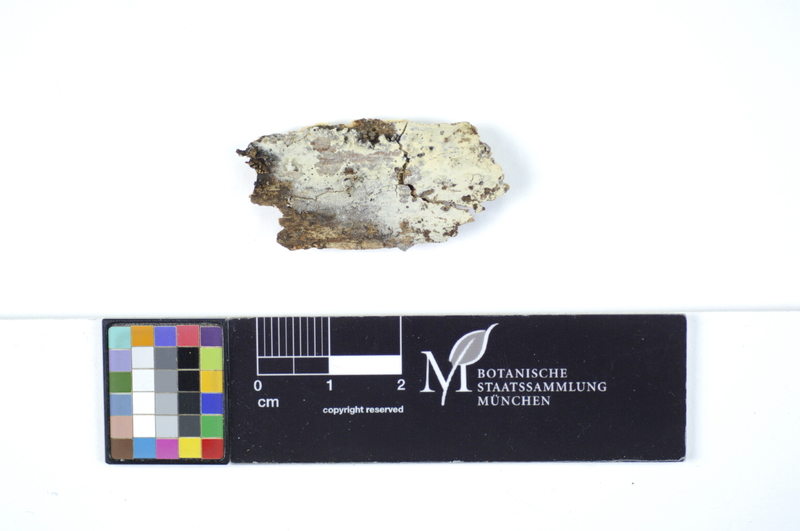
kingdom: Fungi
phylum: Basidiomycota
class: Agaricomycetes
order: Polyporales
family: Hyphodermataceae
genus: Hyphoderma
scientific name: Hyphoderma obtusiforme
